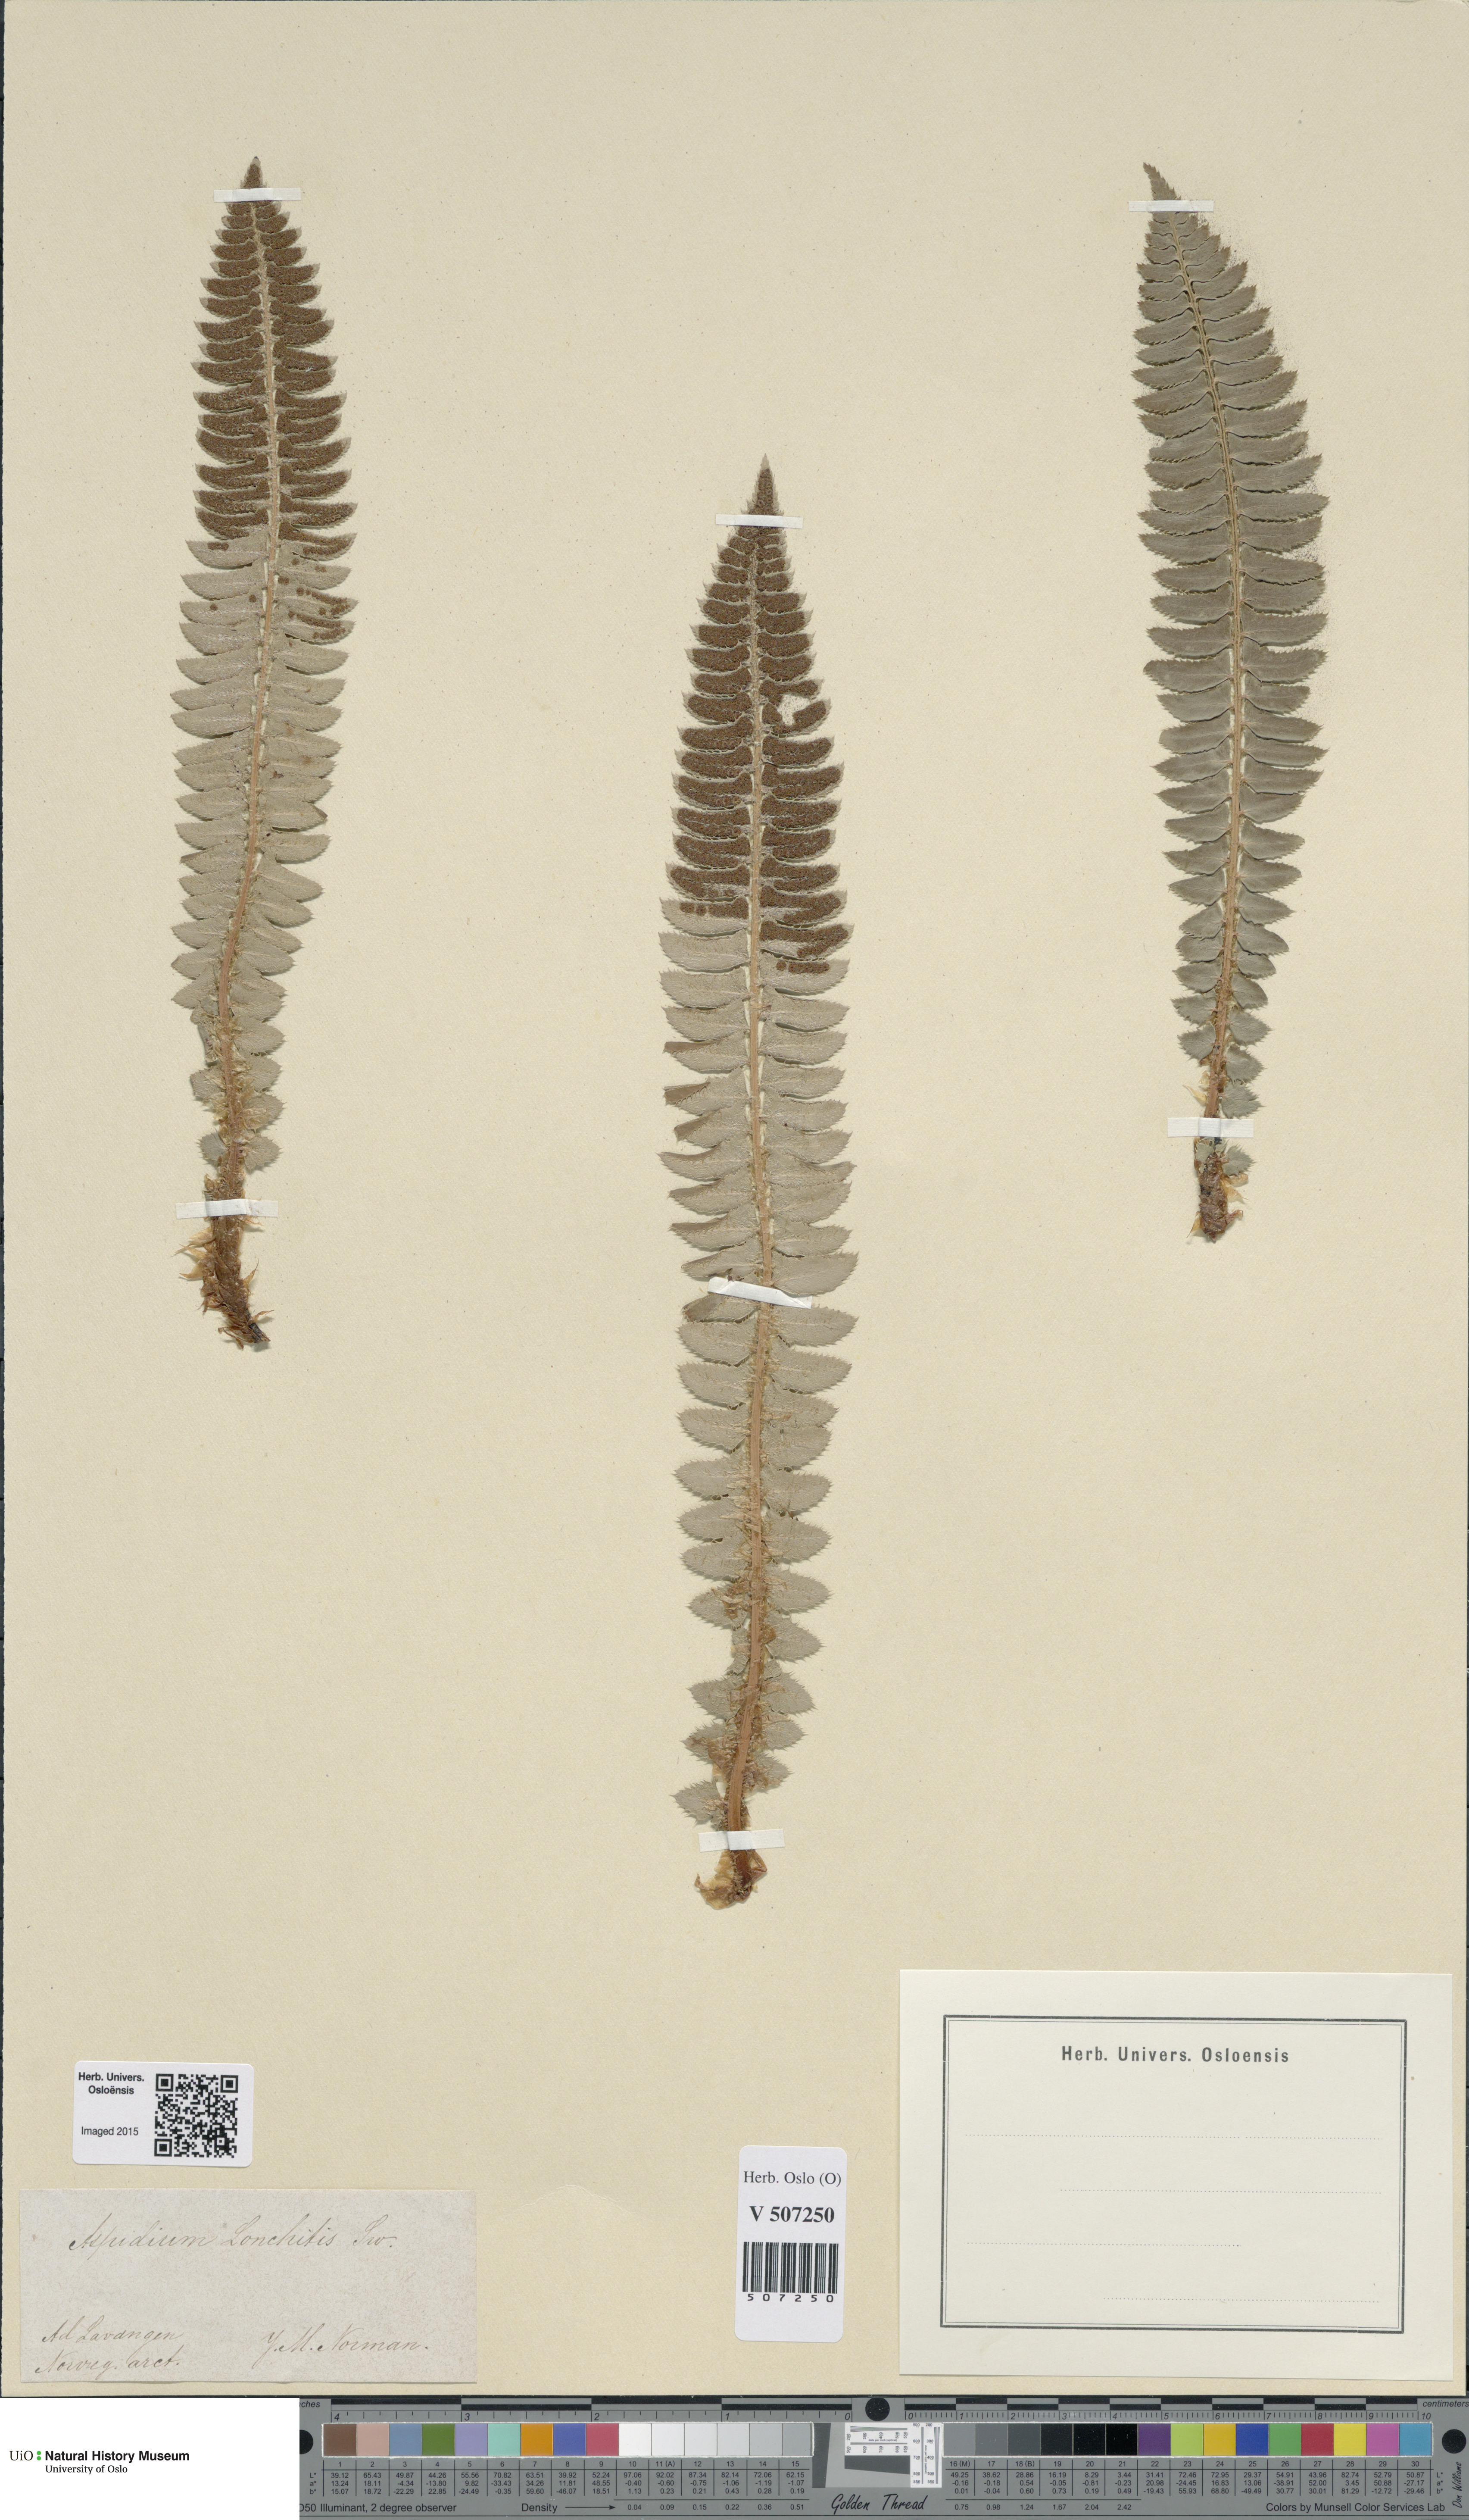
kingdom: Plantae
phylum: Tracheophyta
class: Polypodiopsida
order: Polypodiales
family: Dryopteridaceae
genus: Polystichum
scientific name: Polystichum lonchitis
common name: Holly fern
